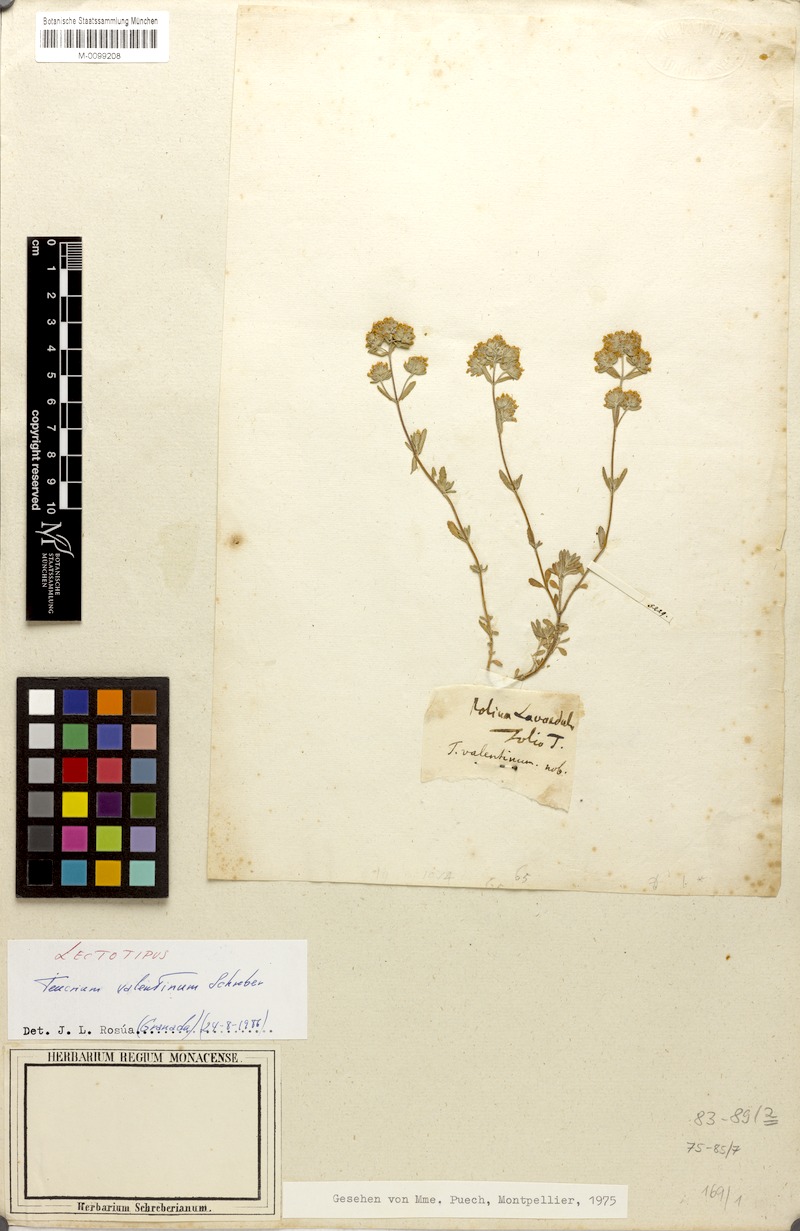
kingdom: Plantae
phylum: Tracheophyta
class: Magnoliopsida
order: Lamiales
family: Lamiaceae
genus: Teucrium
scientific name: Teucrium capitatum
